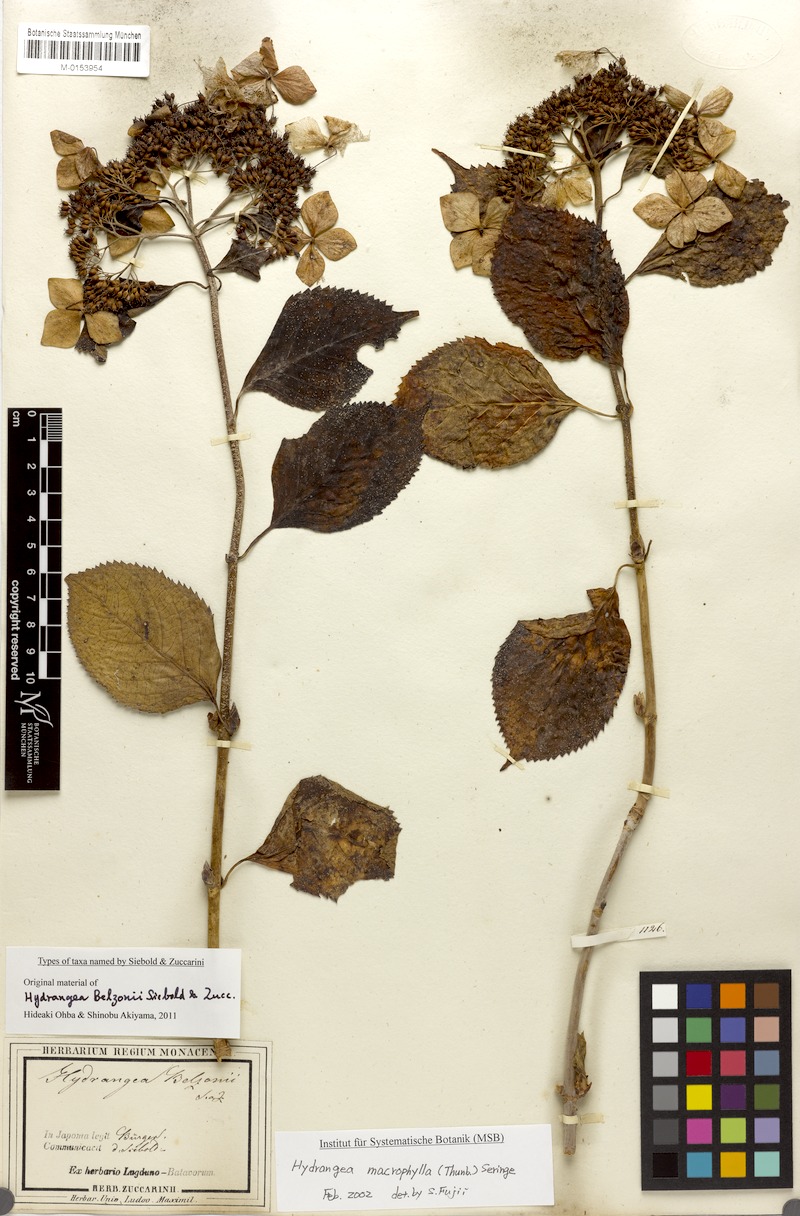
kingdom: Plantae
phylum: Tracheophyta
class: Magnoliopsida
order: Cornales
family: Hydrangeaceae
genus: Hydrangea
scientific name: Hydrangea serrata
